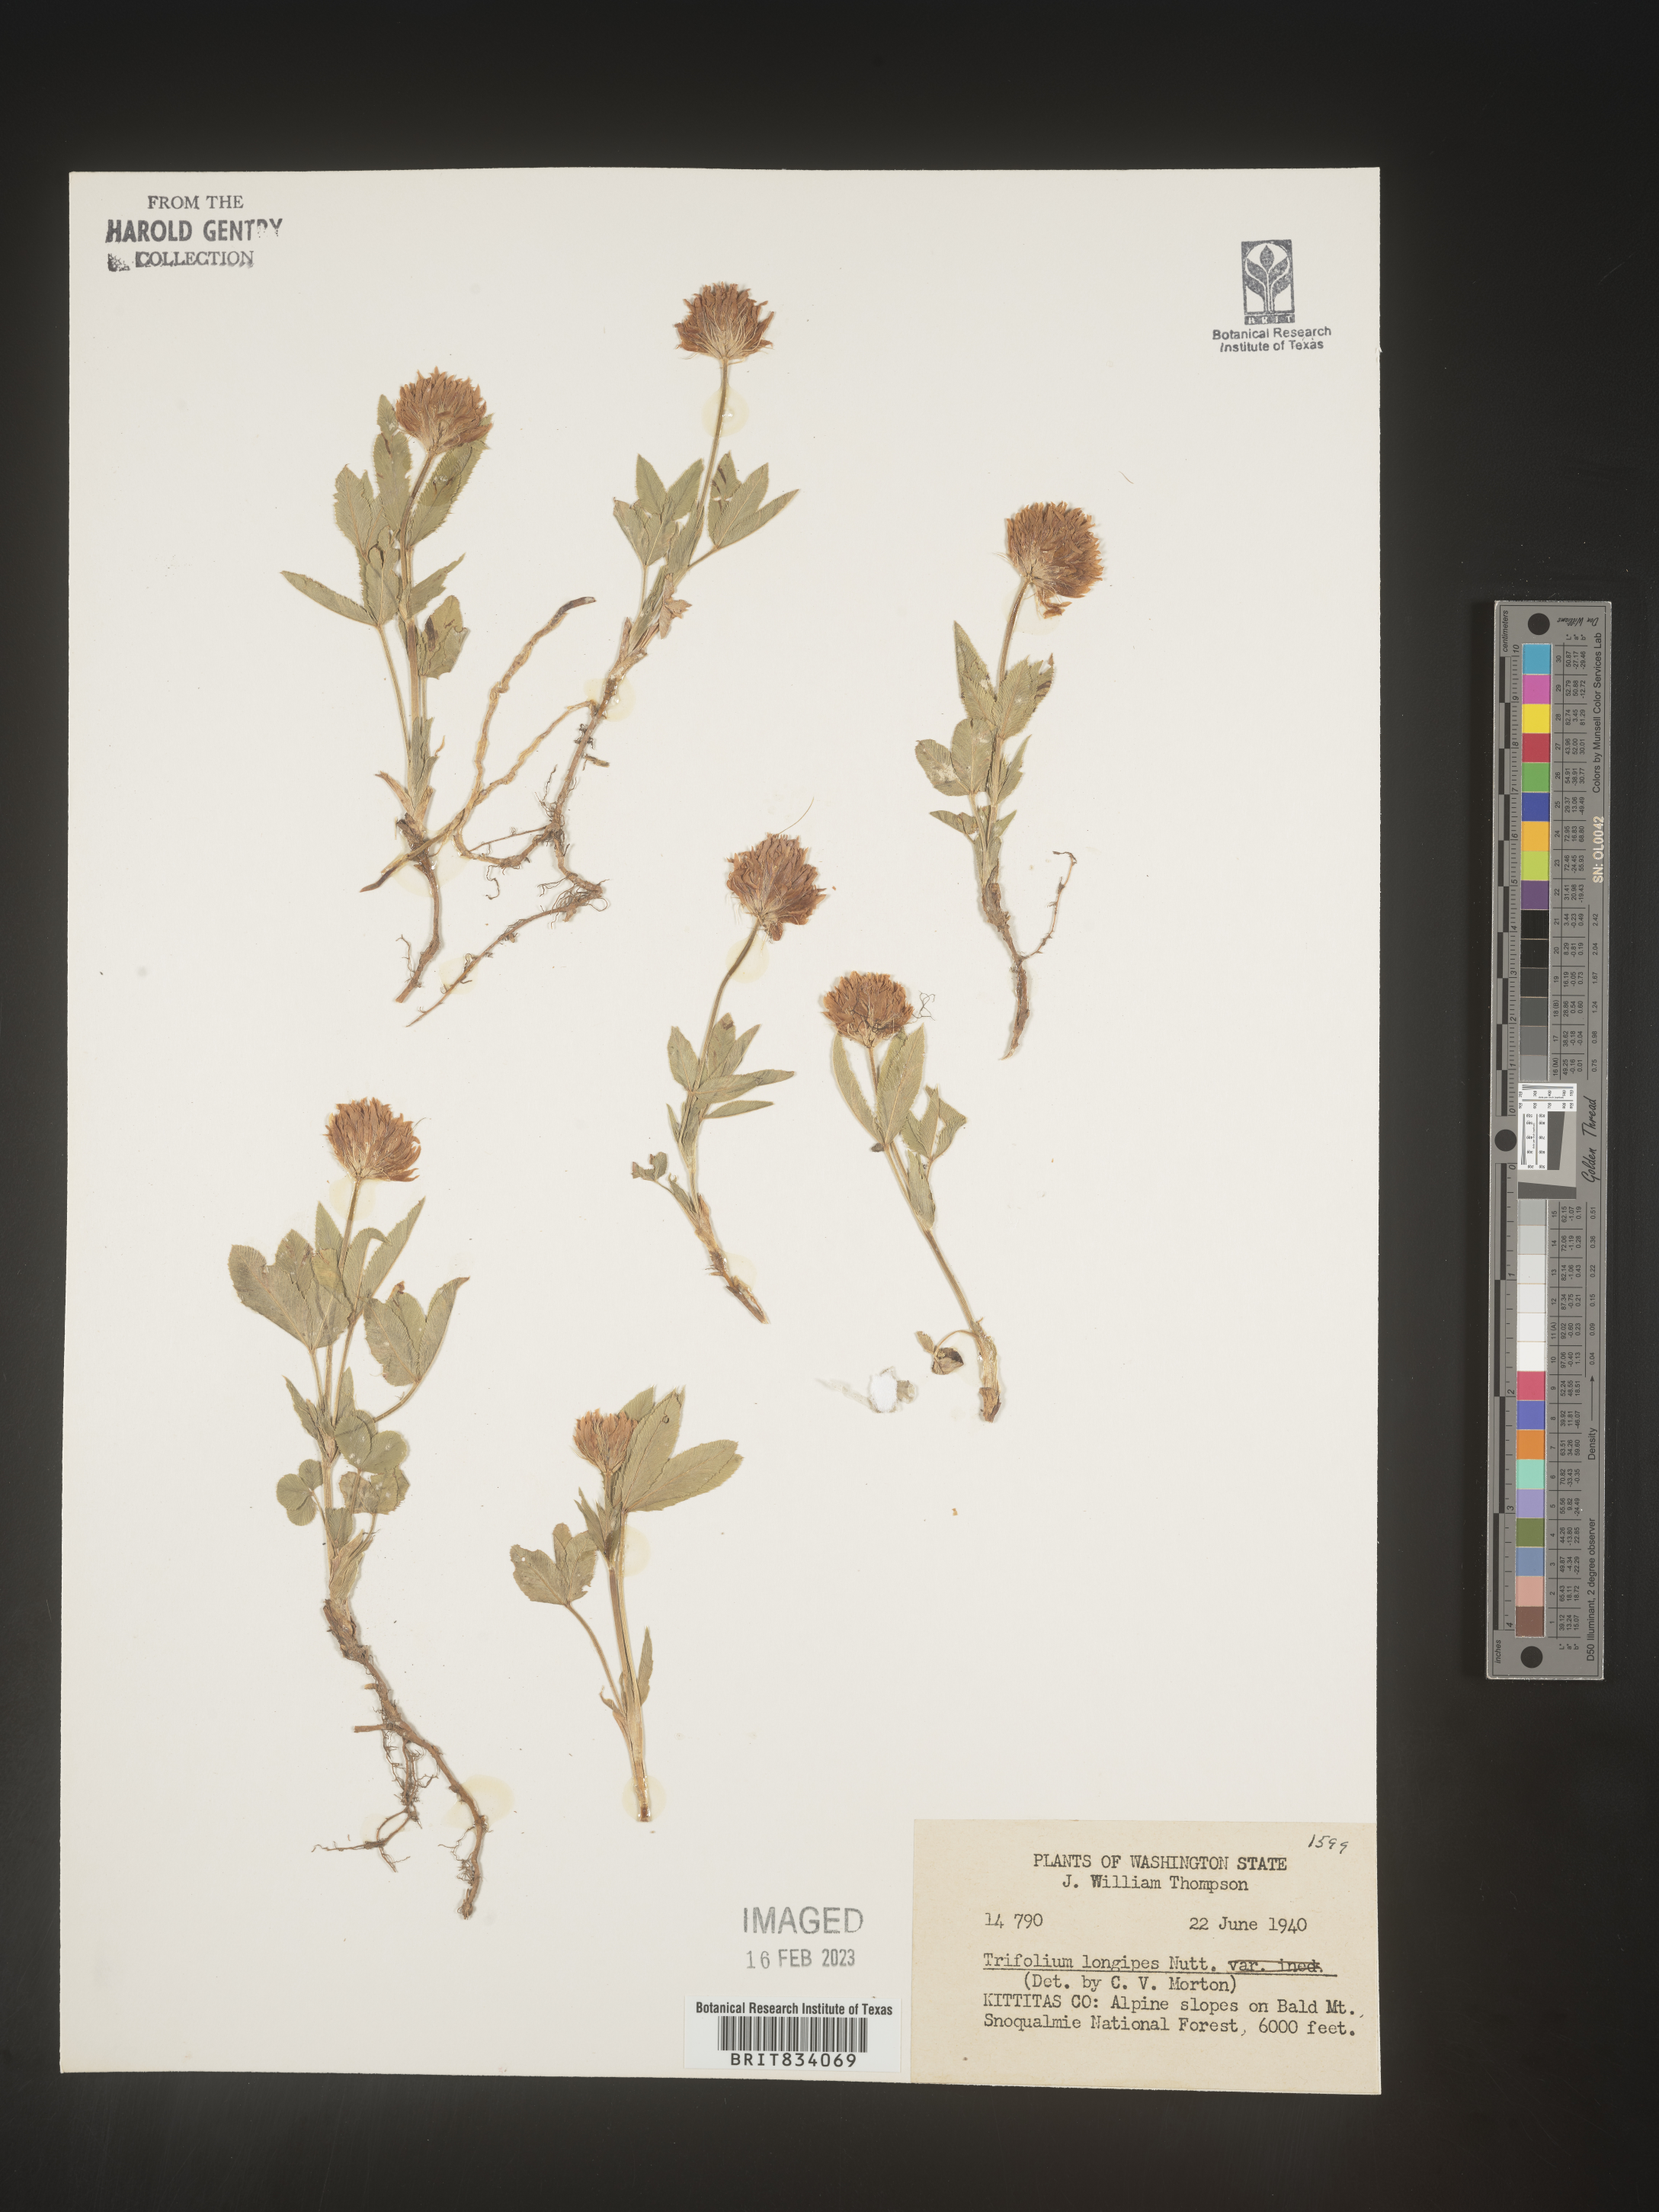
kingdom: Plantae
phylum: Tracheophyta
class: Magnoliopsida
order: Fabales
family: Fabaceae
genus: Trifolium
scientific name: Trifolium
